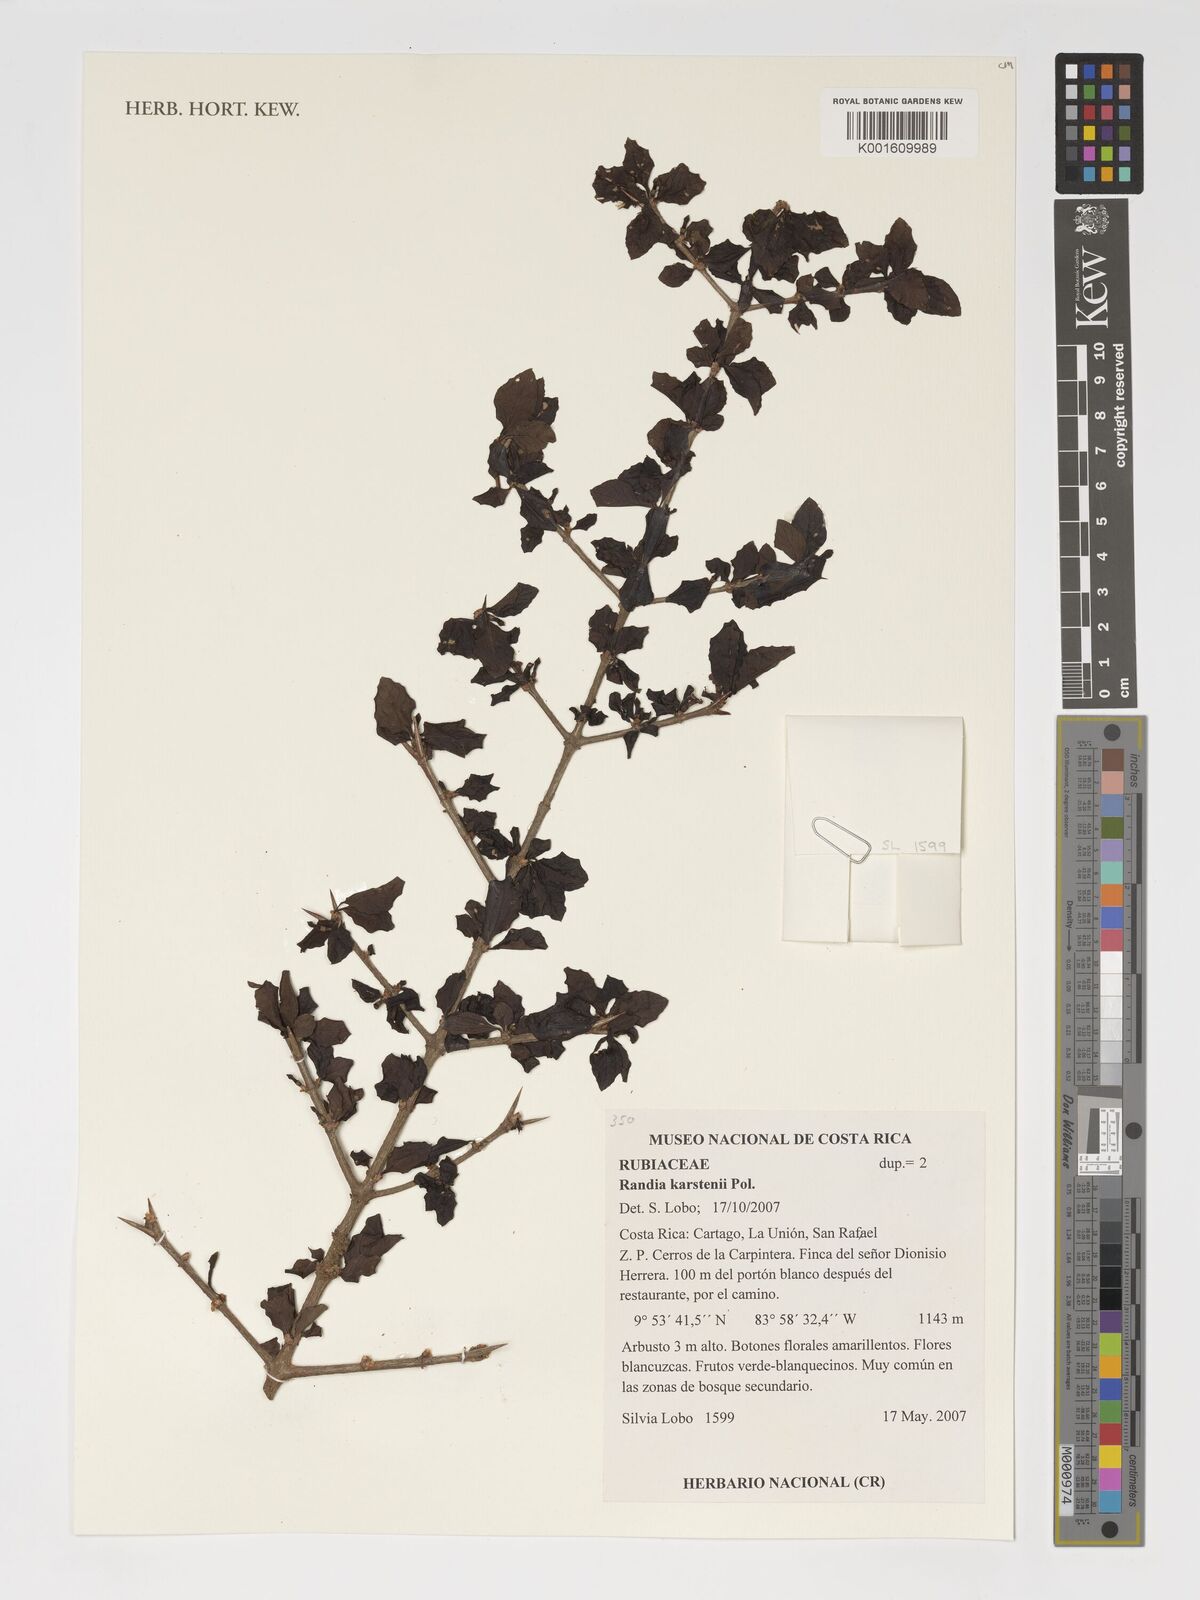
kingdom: Plantae
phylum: Tracheophyta
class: Magnoliopsida
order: Gentianales
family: Rubiaceae
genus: Randia
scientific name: Randia aculeata
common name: Inkberry
